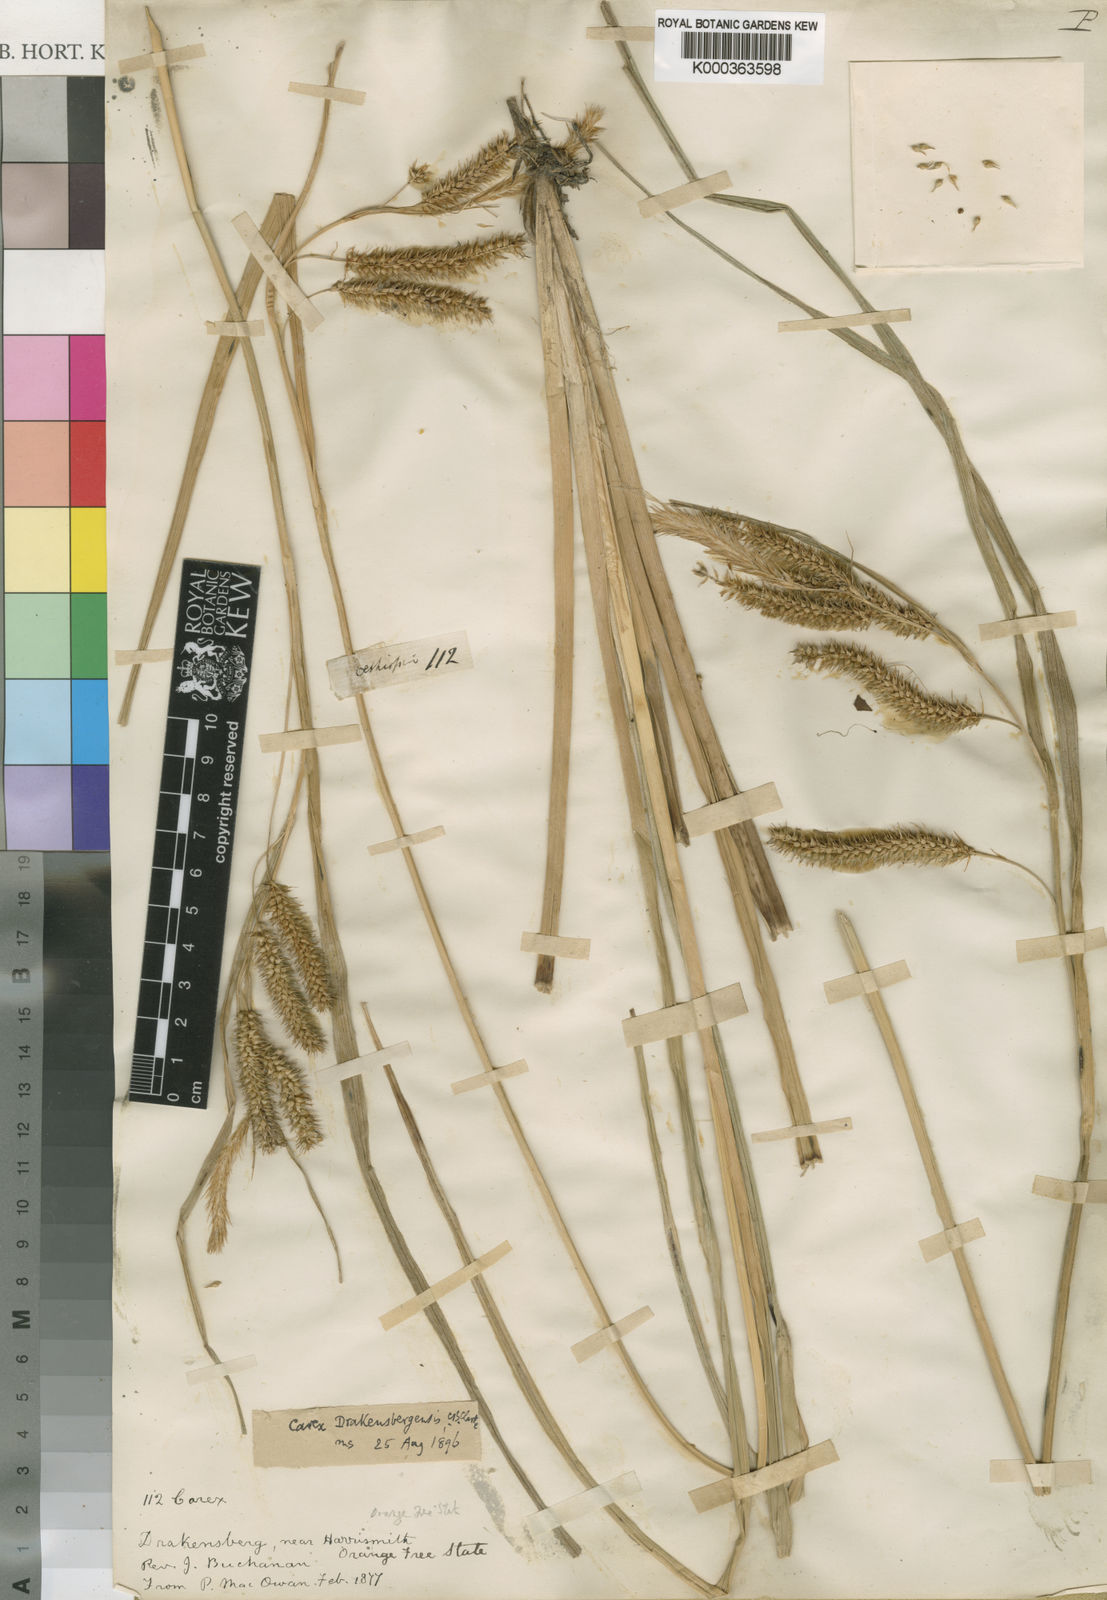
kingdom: Plantae
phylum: Tracheophyta
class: Liliopsida
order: Poales
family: Cyperaceae
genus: Carex
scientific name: Carex cognata
